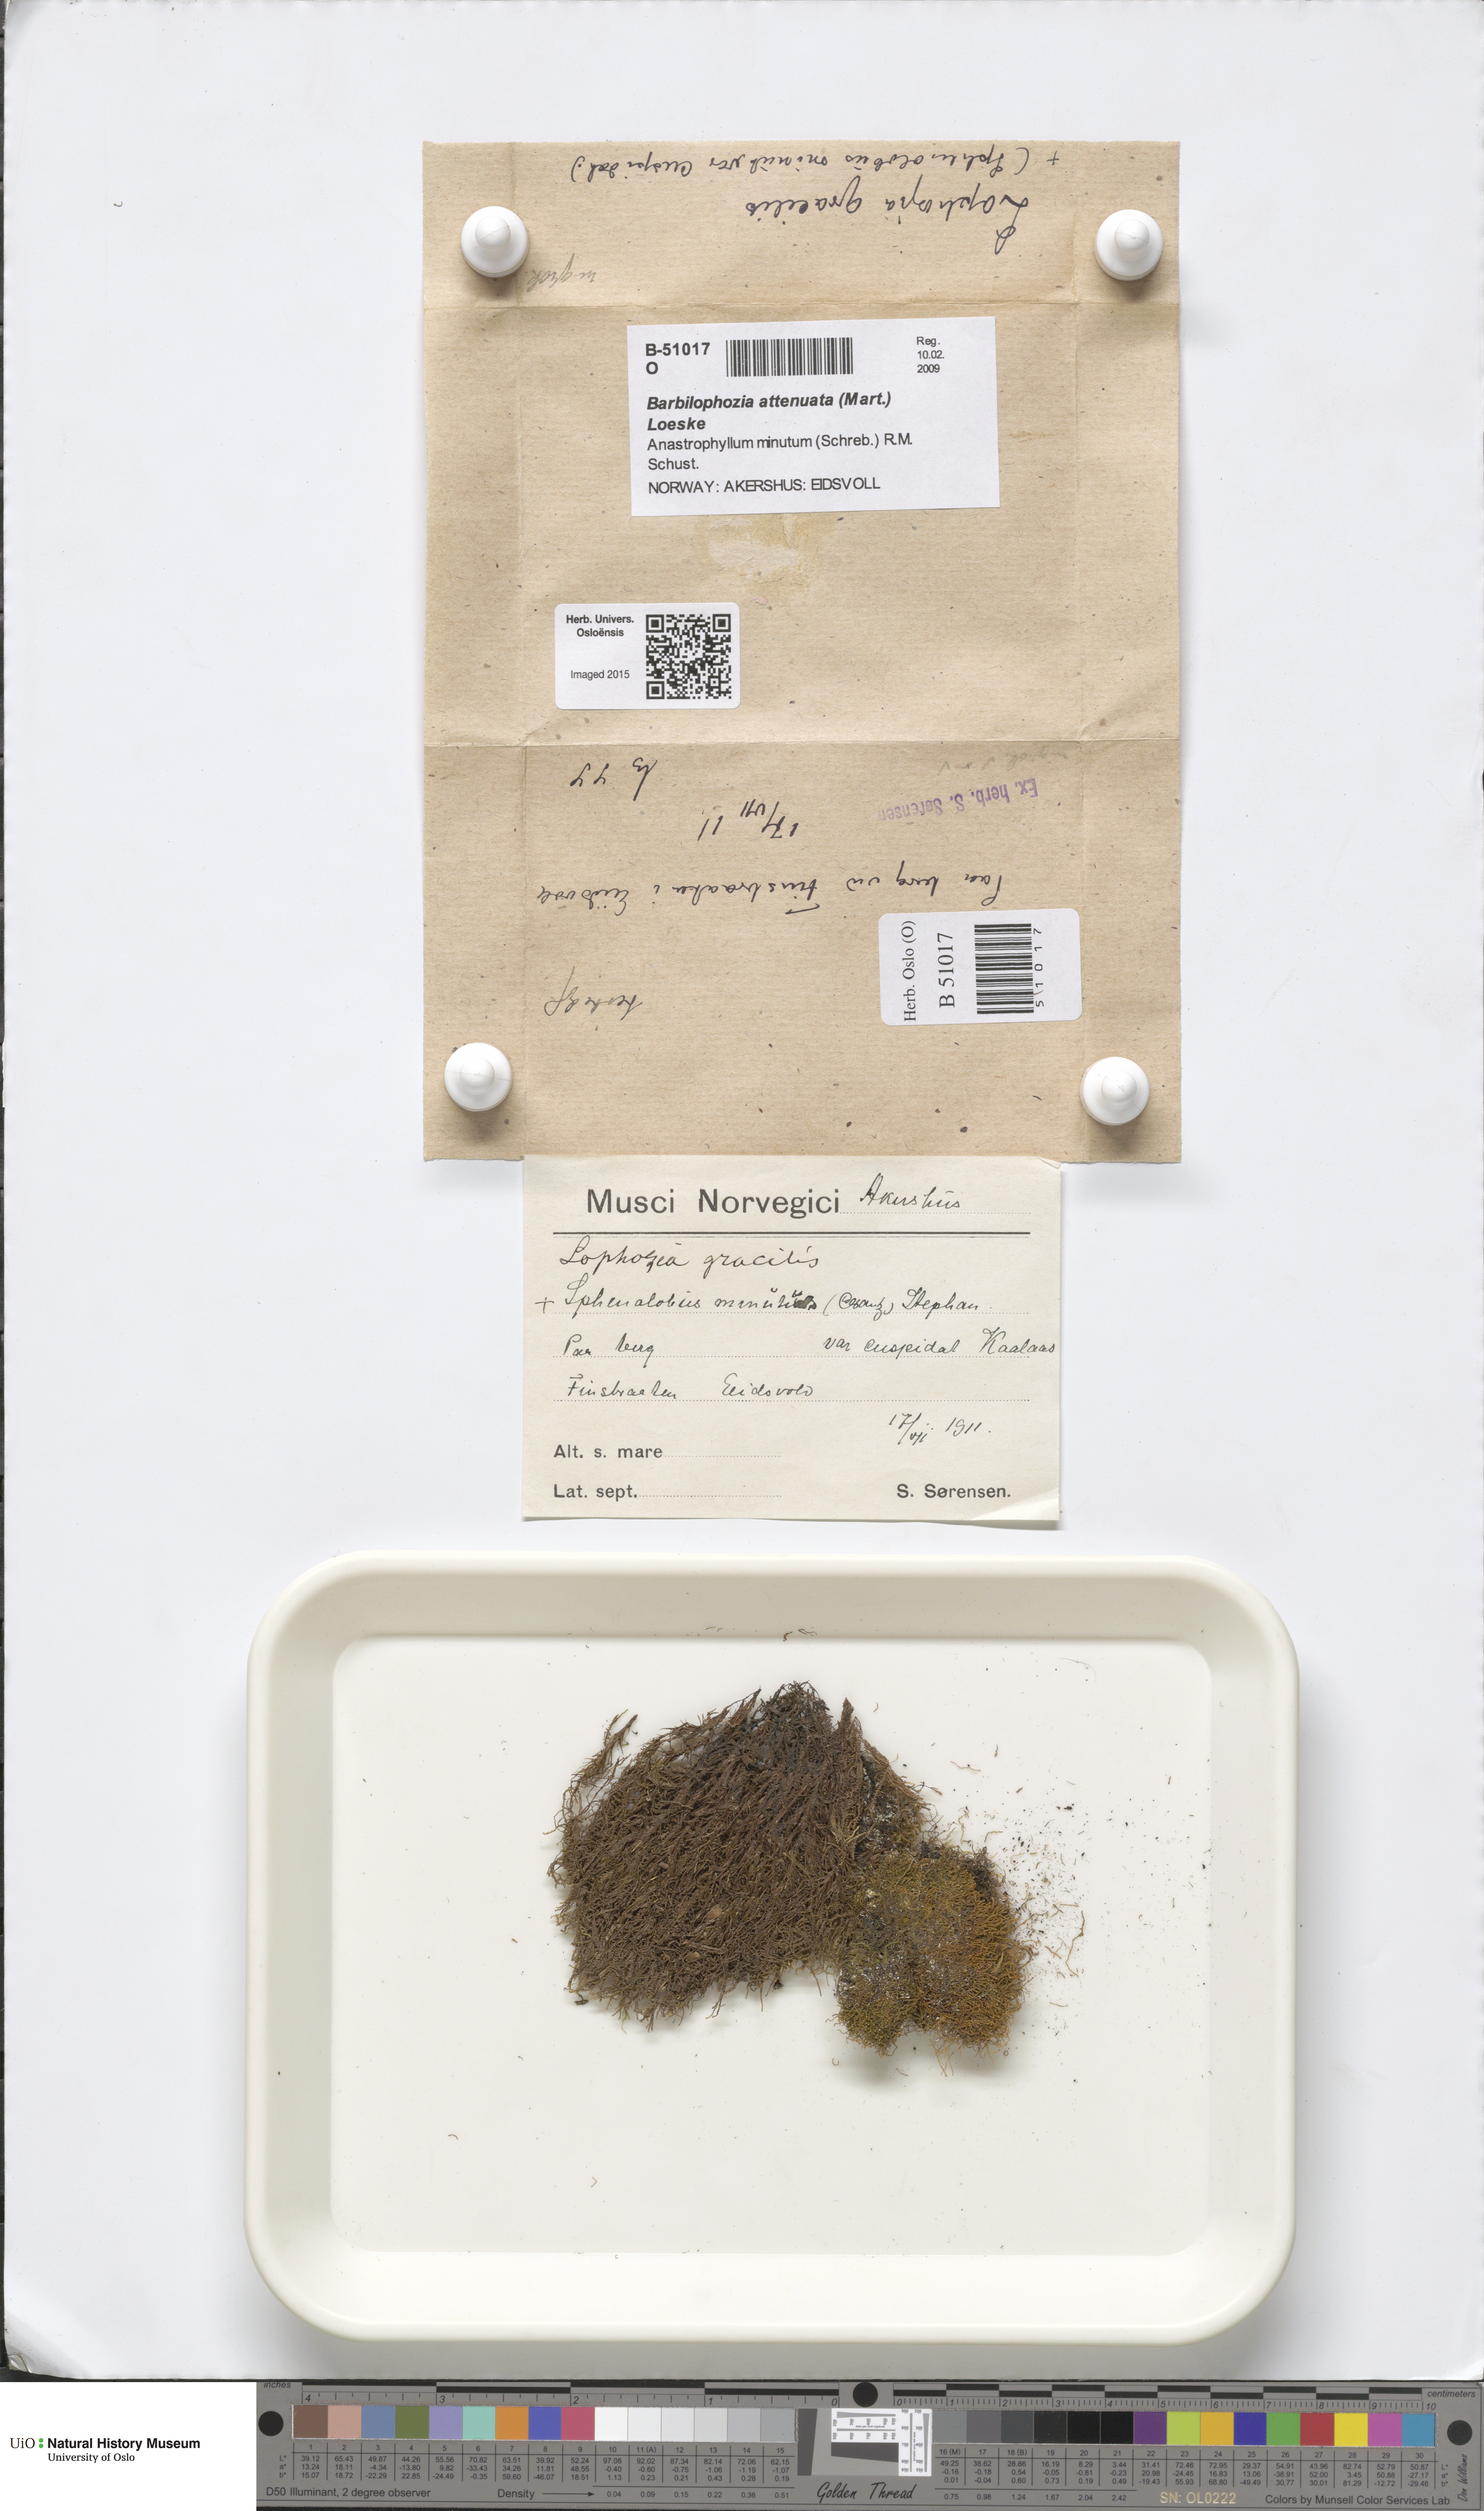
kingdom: Plantae
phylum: Marchantiophyta
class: Jungermanniopsida
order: Jungermanniales
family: Anastrophyllaceae
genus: Neoorthocaulis
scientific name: Neoorthocaulis attenuatus
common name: Trunk pawwort
